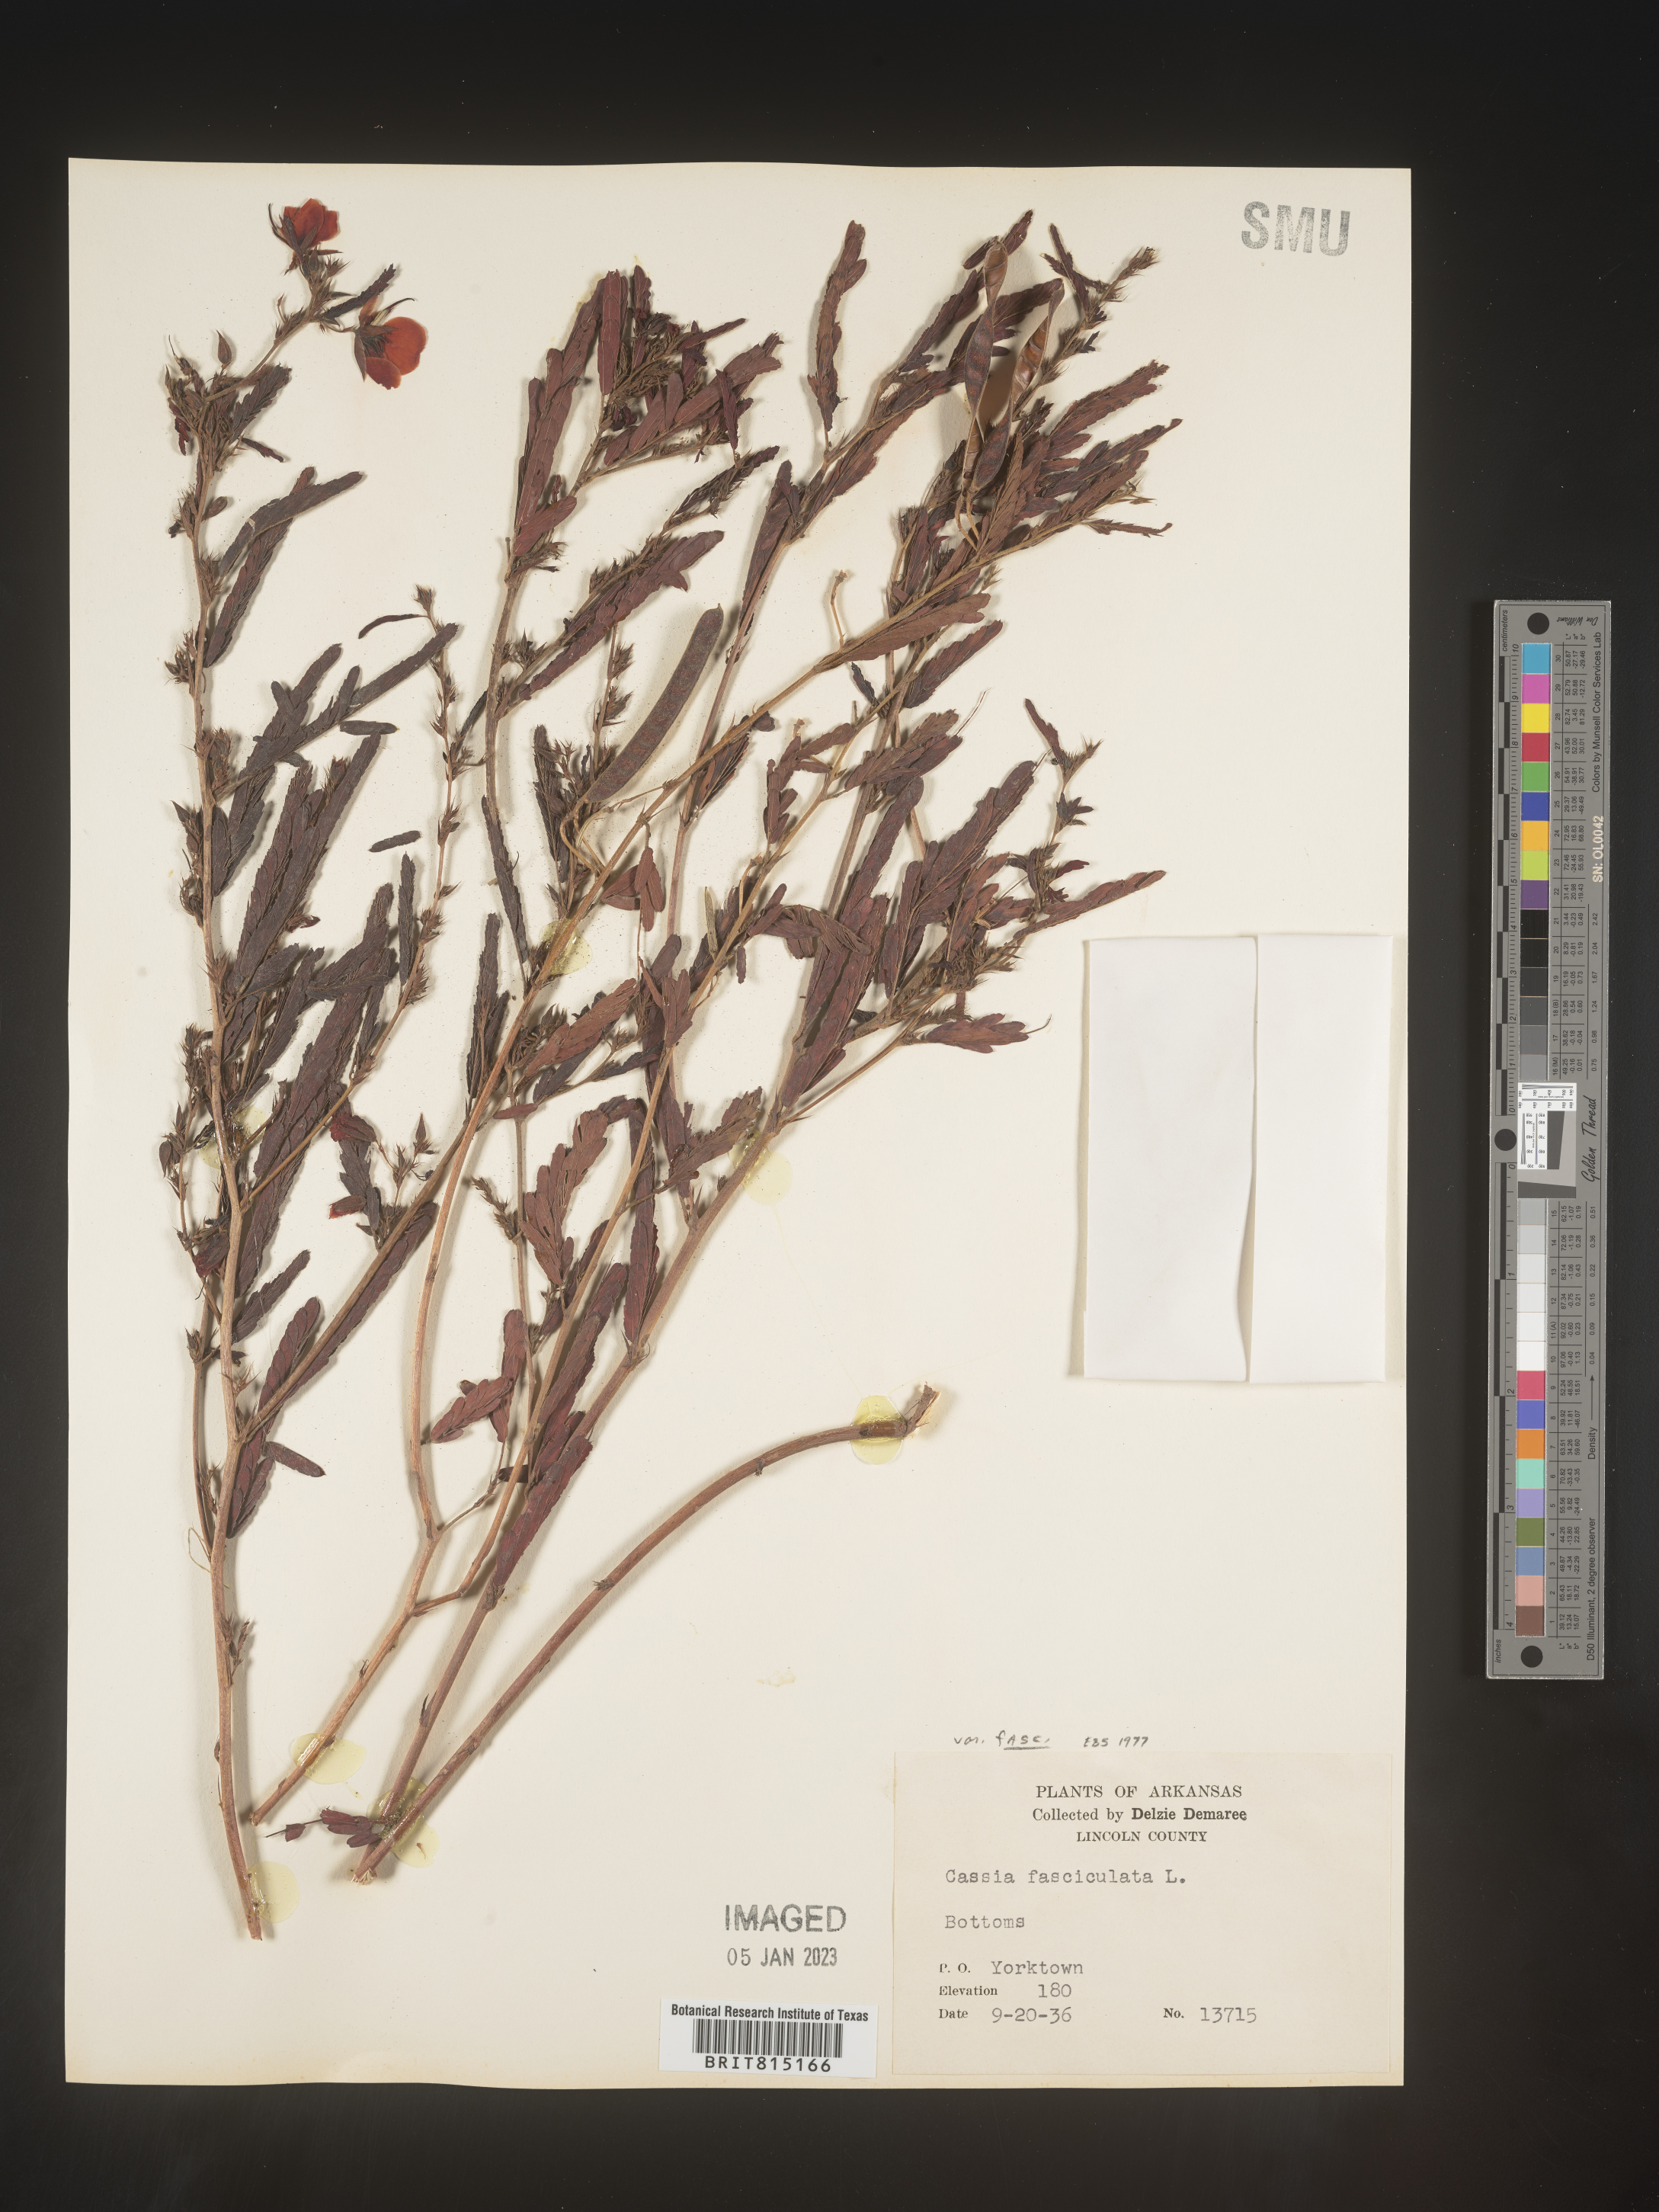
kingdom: Plantae
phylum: Tracheophyta
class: Magnoliopsida
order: Fabales
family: Fabaceae
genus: Chamaecrista
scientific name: Chamaecrista fasciculata
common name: Golden cassia
